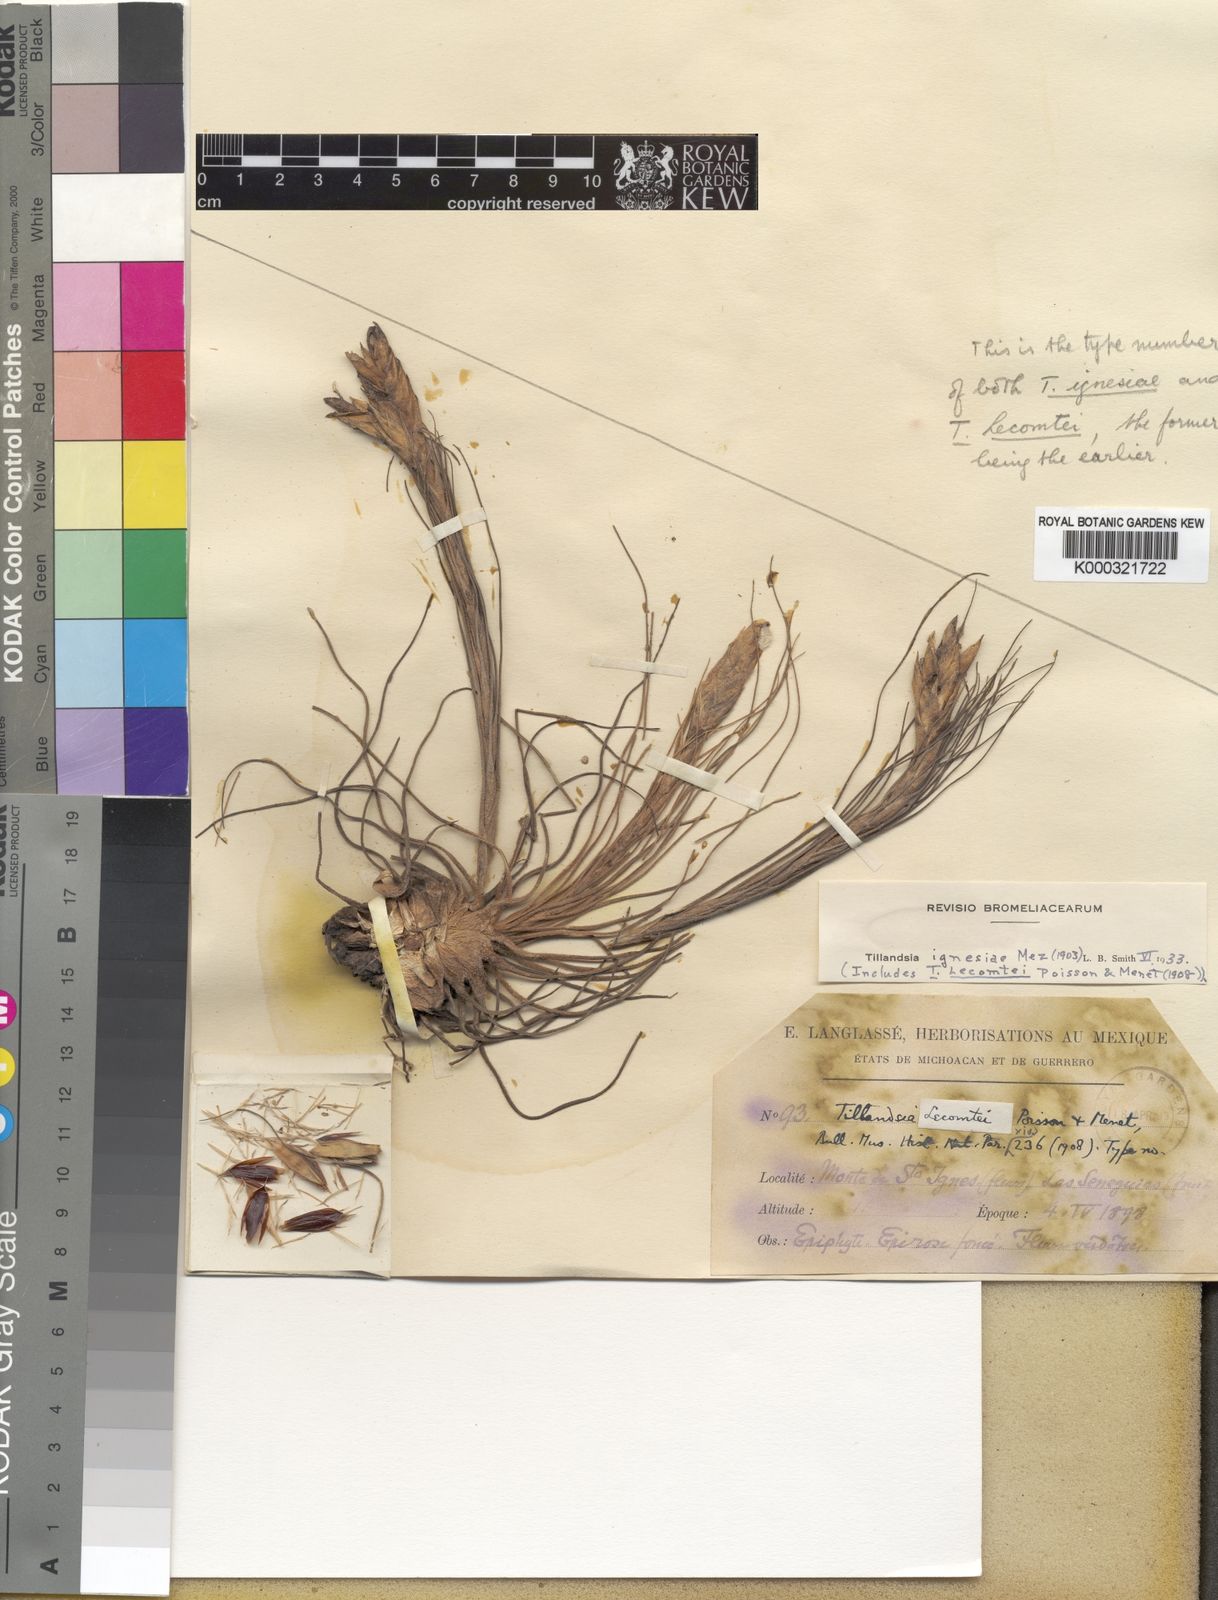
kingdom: Plantae
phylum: Tracheophyta
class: Liliopsida
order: Poales
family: Bromeliaceae
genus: Tillandsia
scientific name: Tillandsia ignesiae
